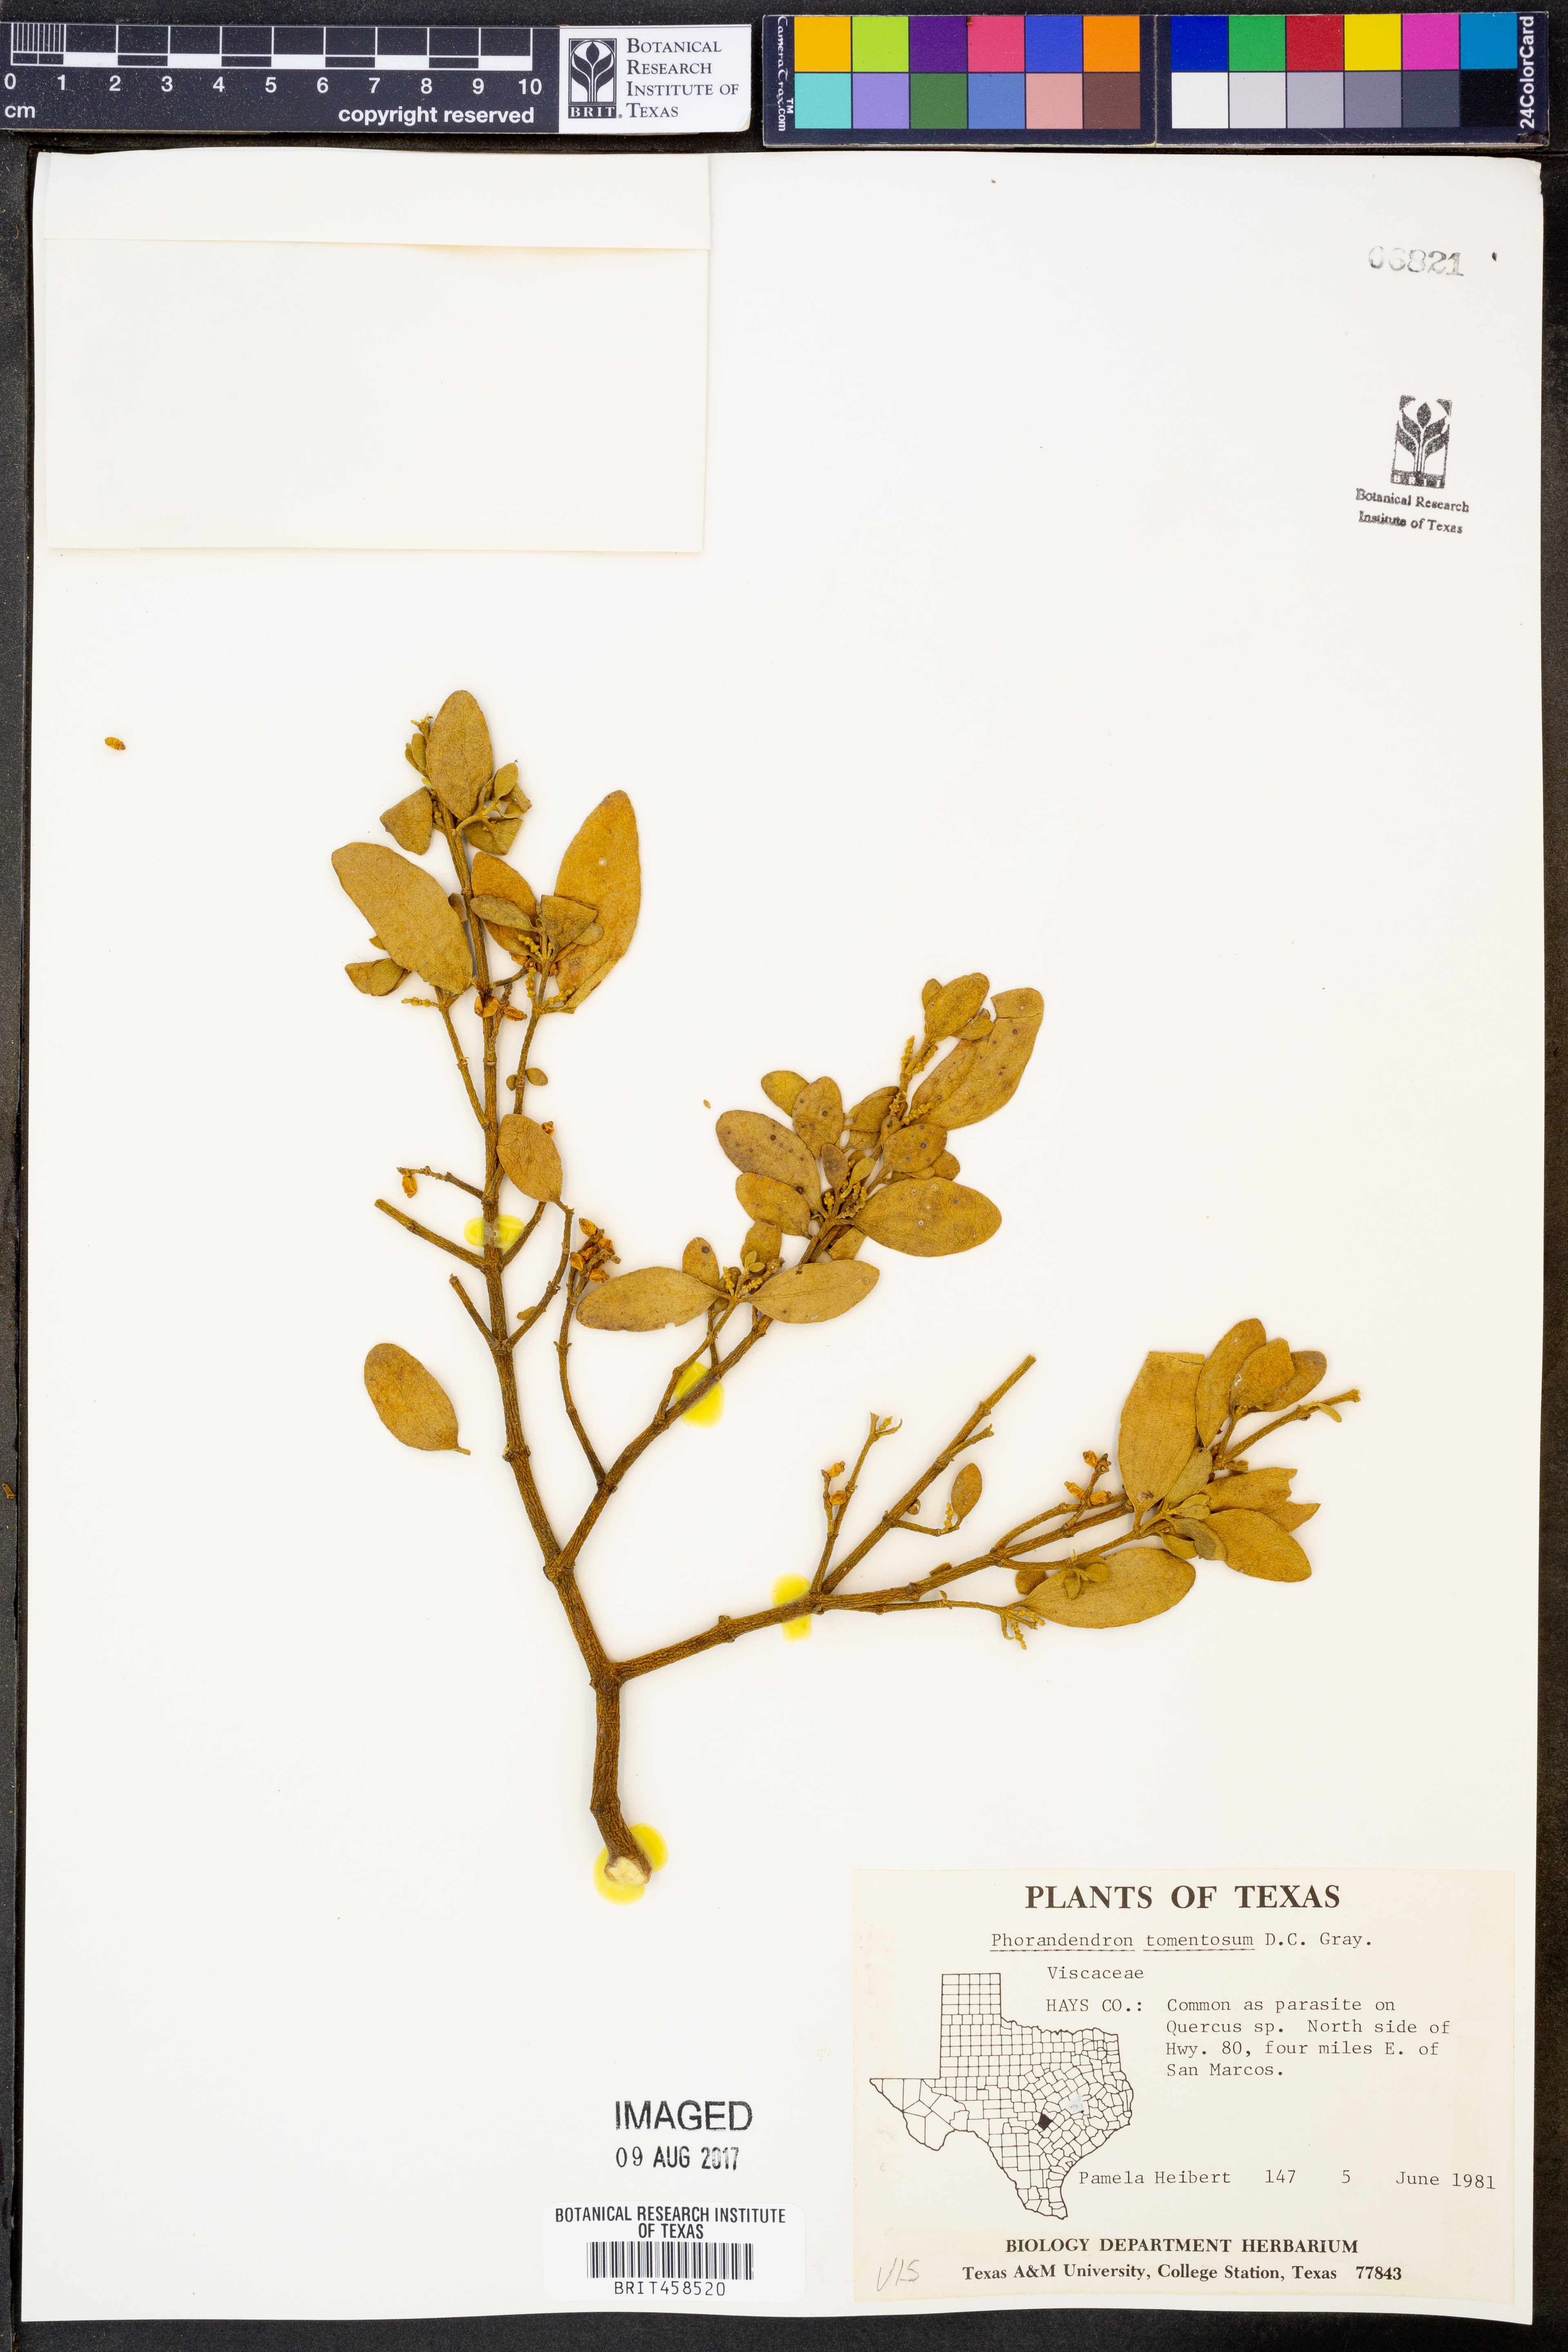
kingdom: Plantae
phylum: Tracheophyta
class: Magnoliopsida
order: Santalales
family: Viscaceae
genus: Phoradendron
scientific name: Phoradendron leucarpum
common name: Pacific mistletoe
